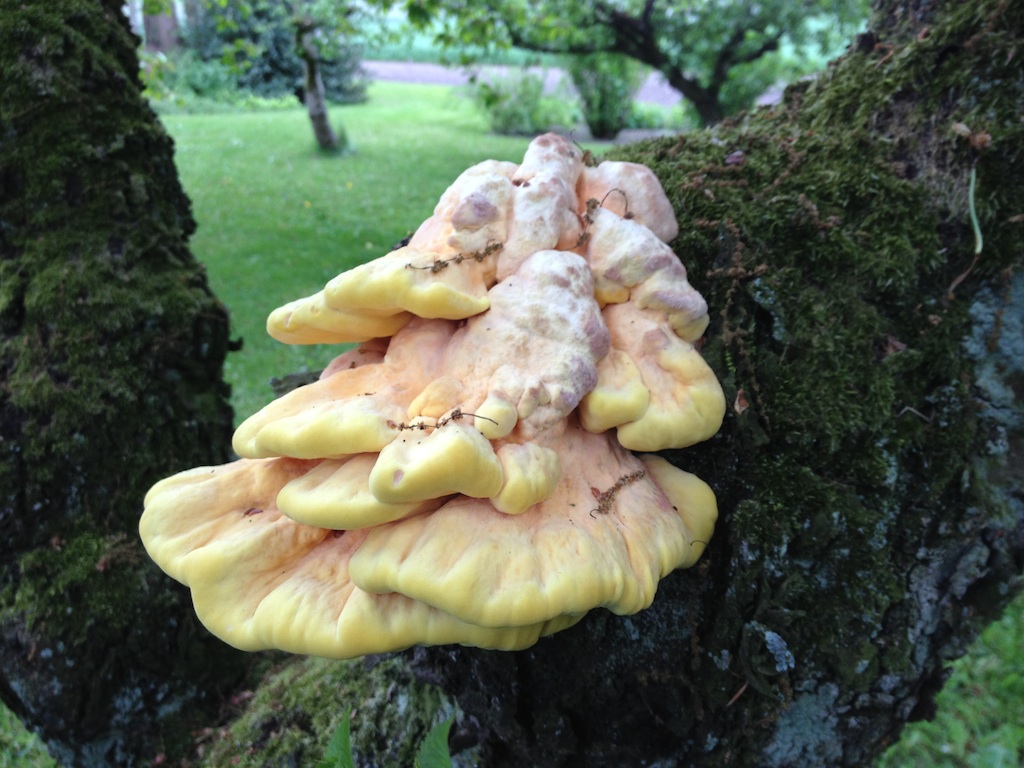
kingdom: Fungi
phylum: Basidiomycota
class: Agaricomycetes
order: Polyporales
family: Laetiporaceae
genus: Laetiporus
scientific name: Laetiporus sulphureus
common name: svovlporesvamp
